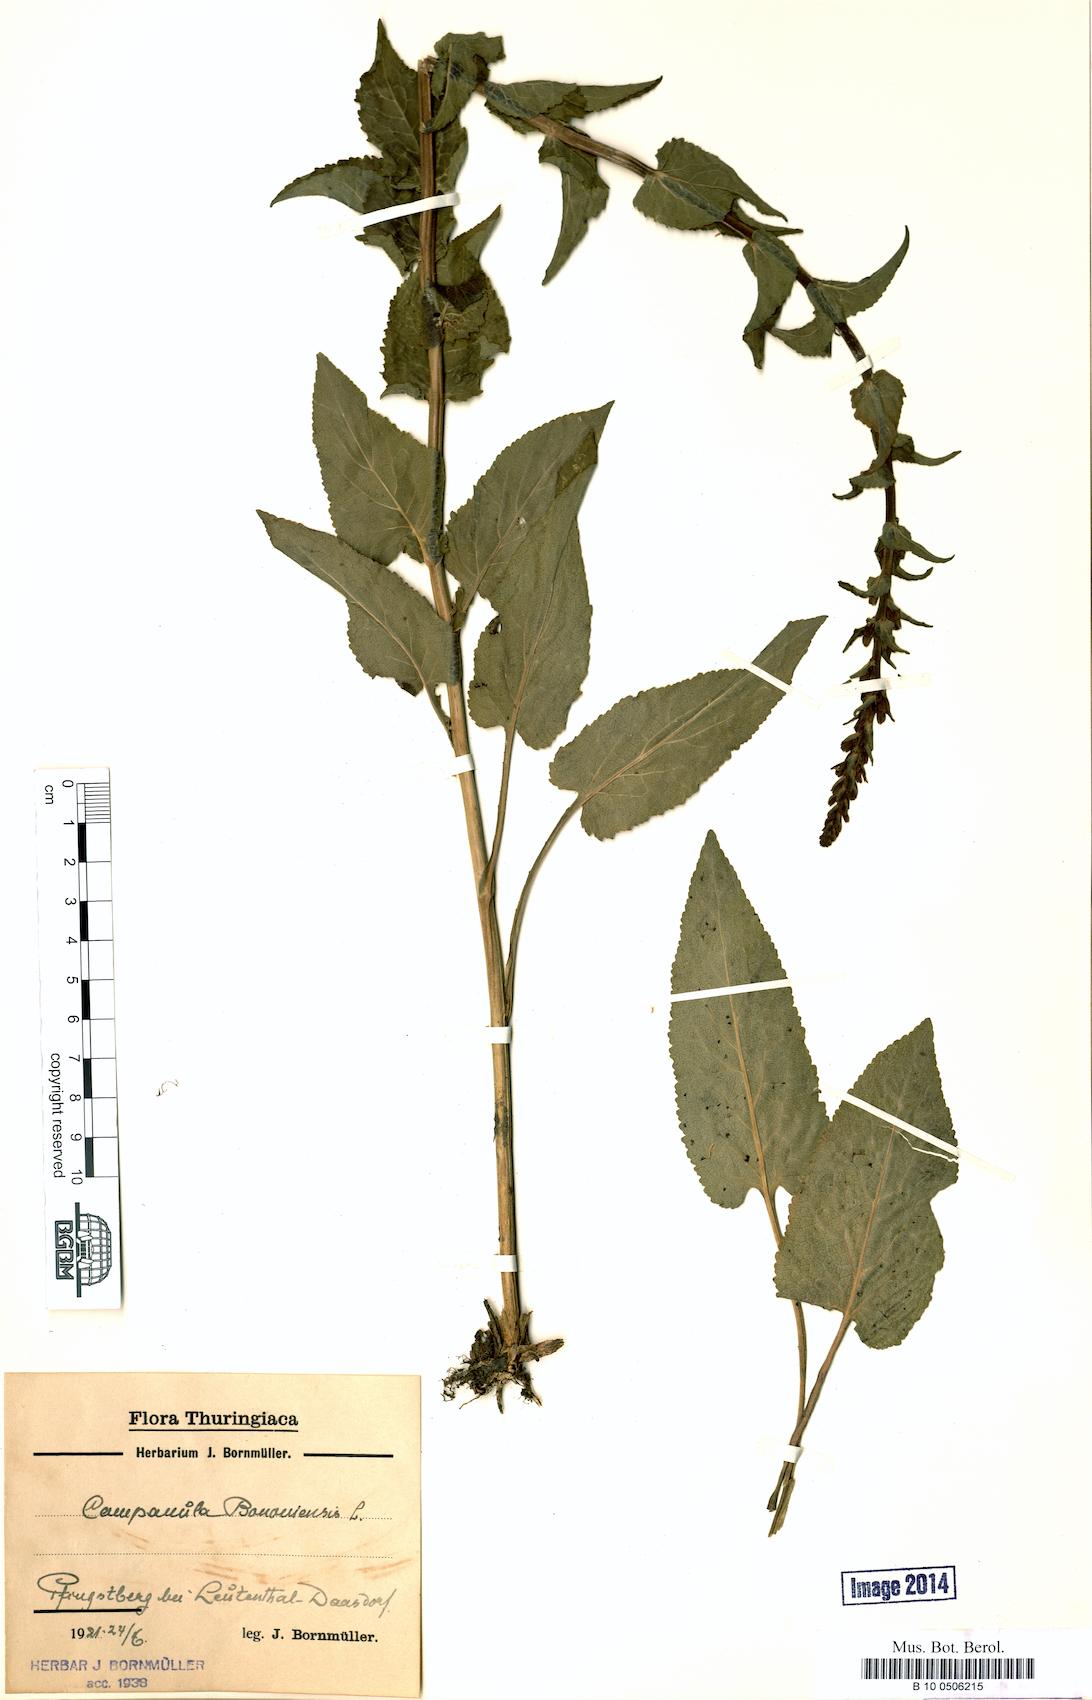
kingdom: Plantae
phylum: Tracheophyta
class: Magnoliopsida
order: Asterales
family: Campanulaceae
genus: Campanula
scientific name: Campanula bononiensis
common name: Pale bellflower
